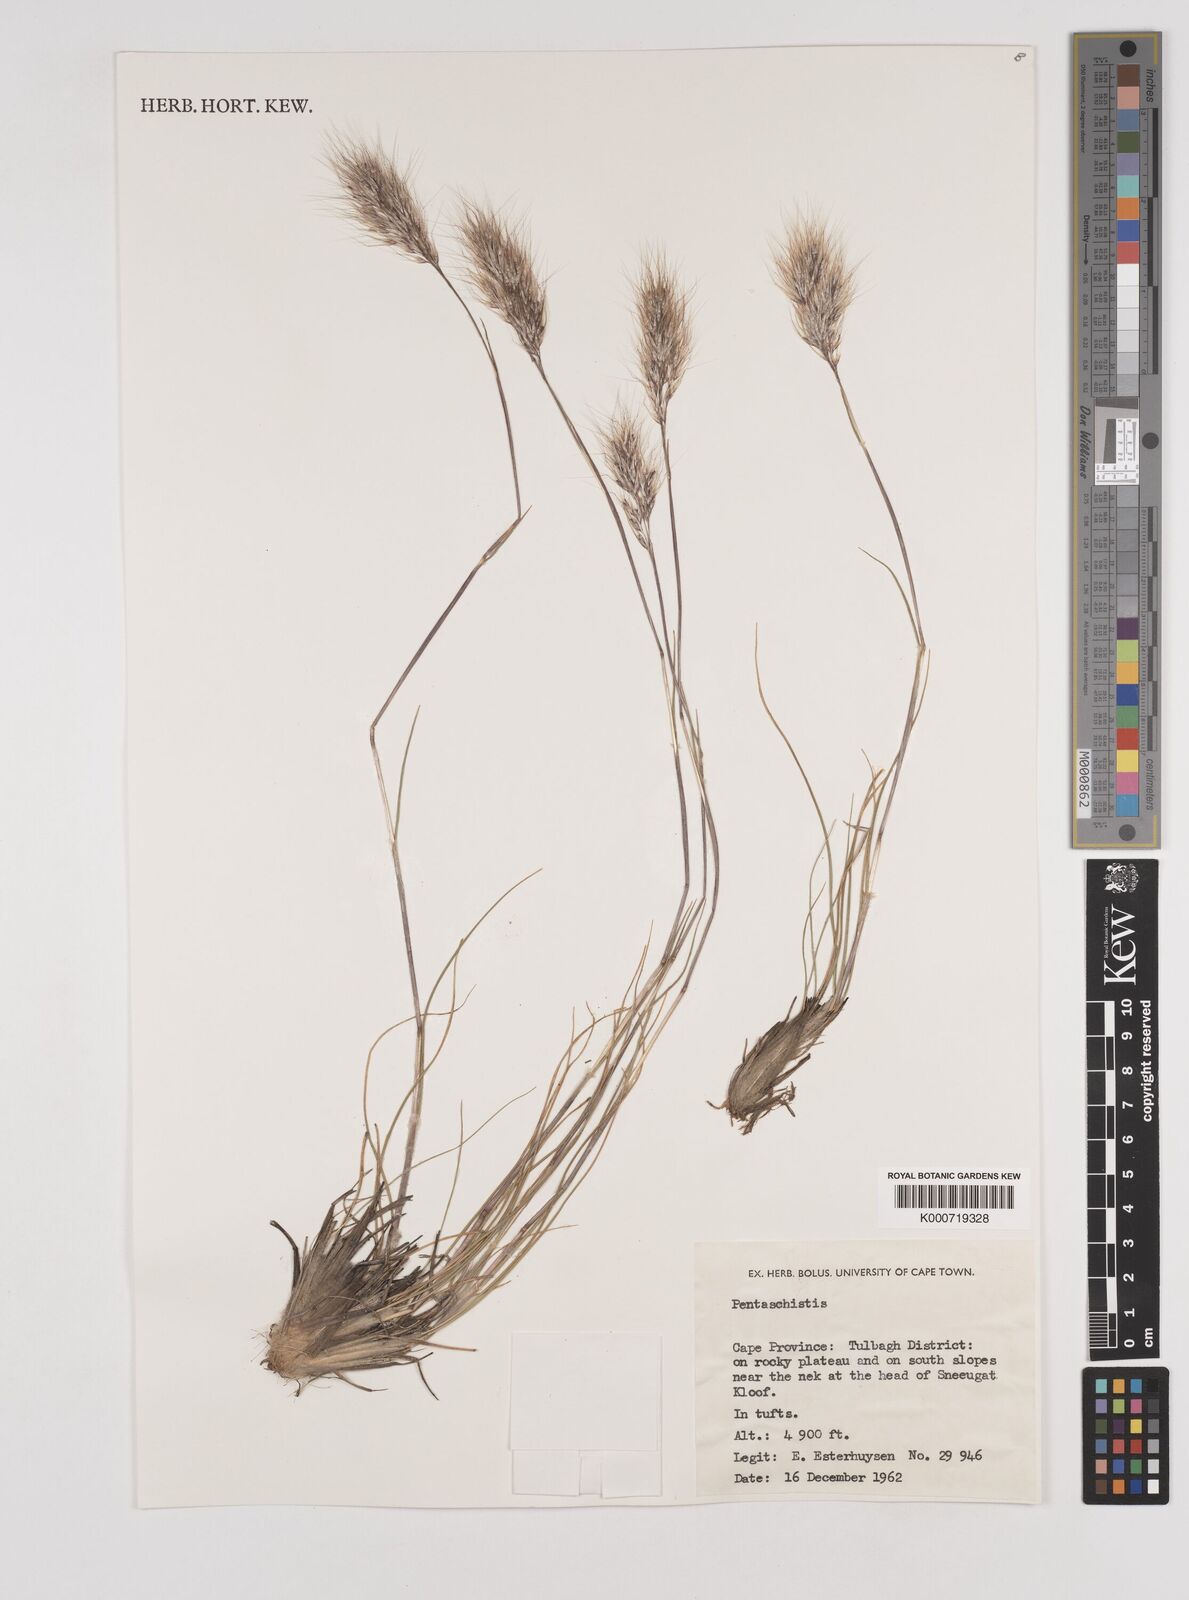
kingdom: Plantae
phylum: Tracheophyta
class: Liliopsida
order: Poales
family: Poaceae
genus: Pentameris
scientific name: Pentameris viscidula
